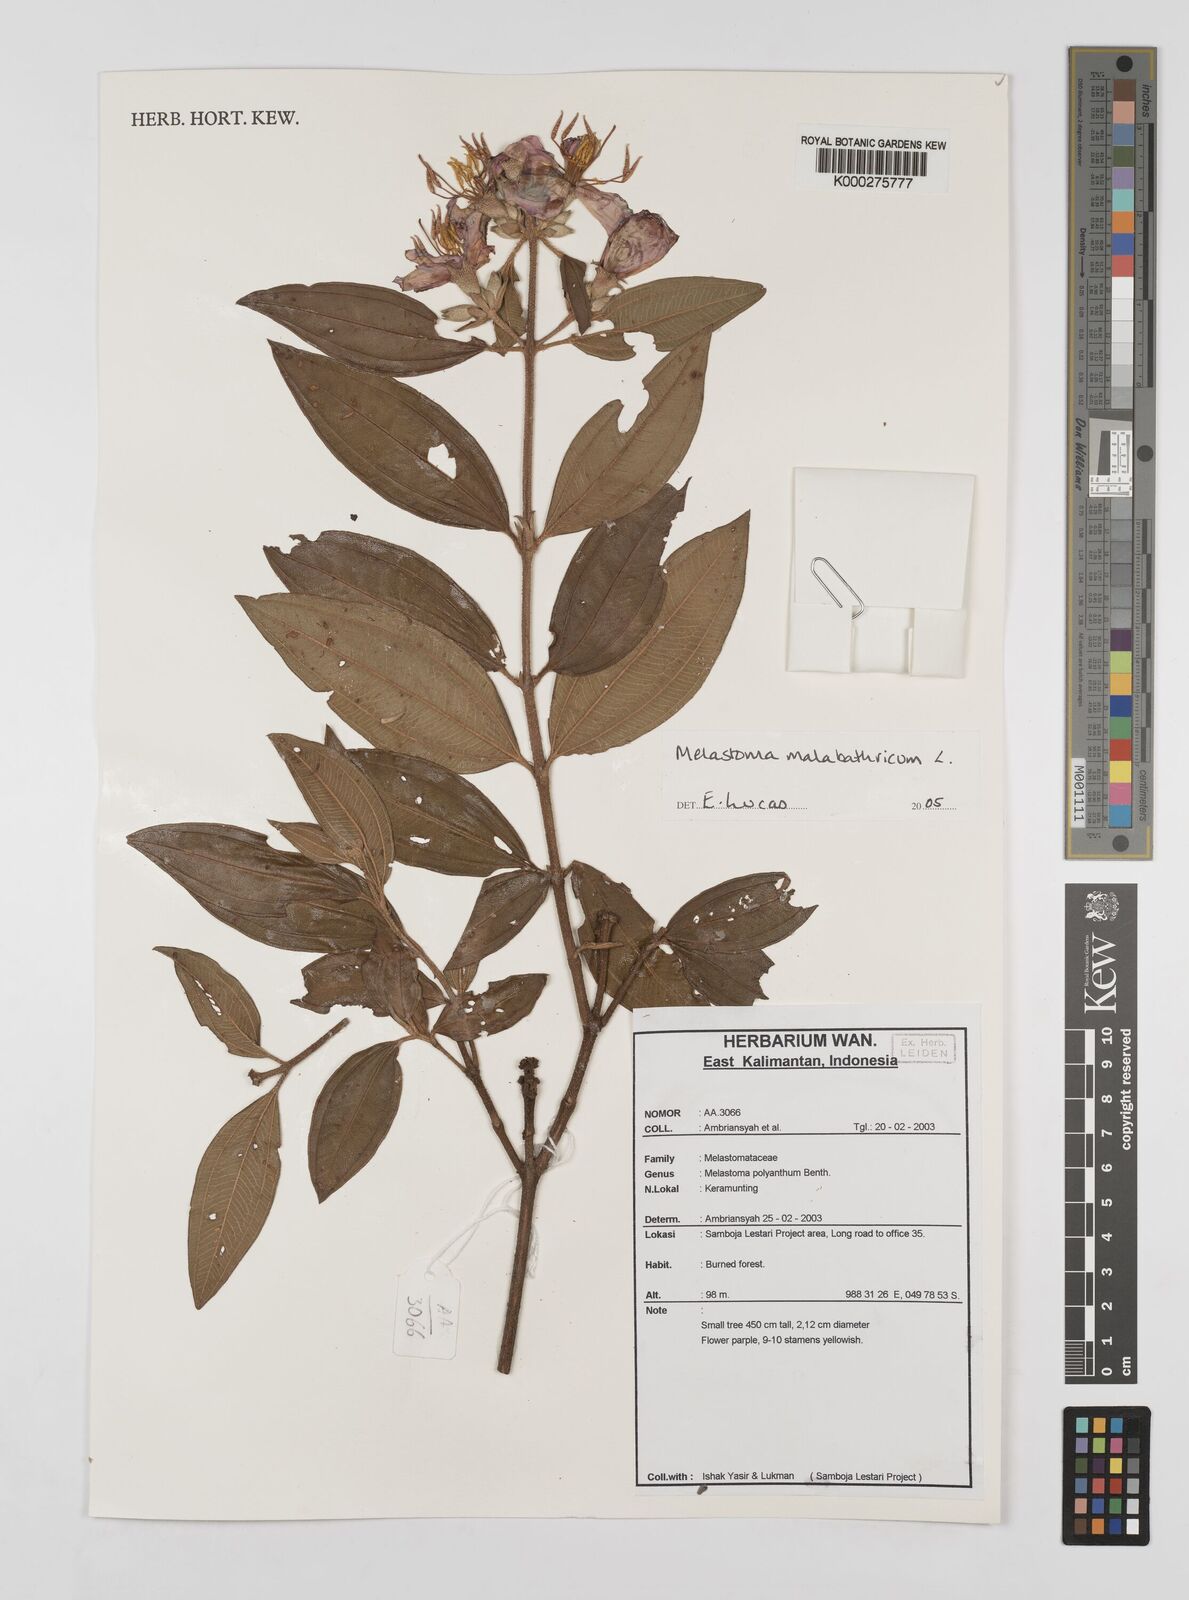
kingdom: Plantae
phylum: Tracheophyta
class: Magnoliopsida
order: Myrtales
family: Melastomataceae
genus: Melastoma
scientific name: Melastoma malabathricum
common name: Indian-rhododendron
